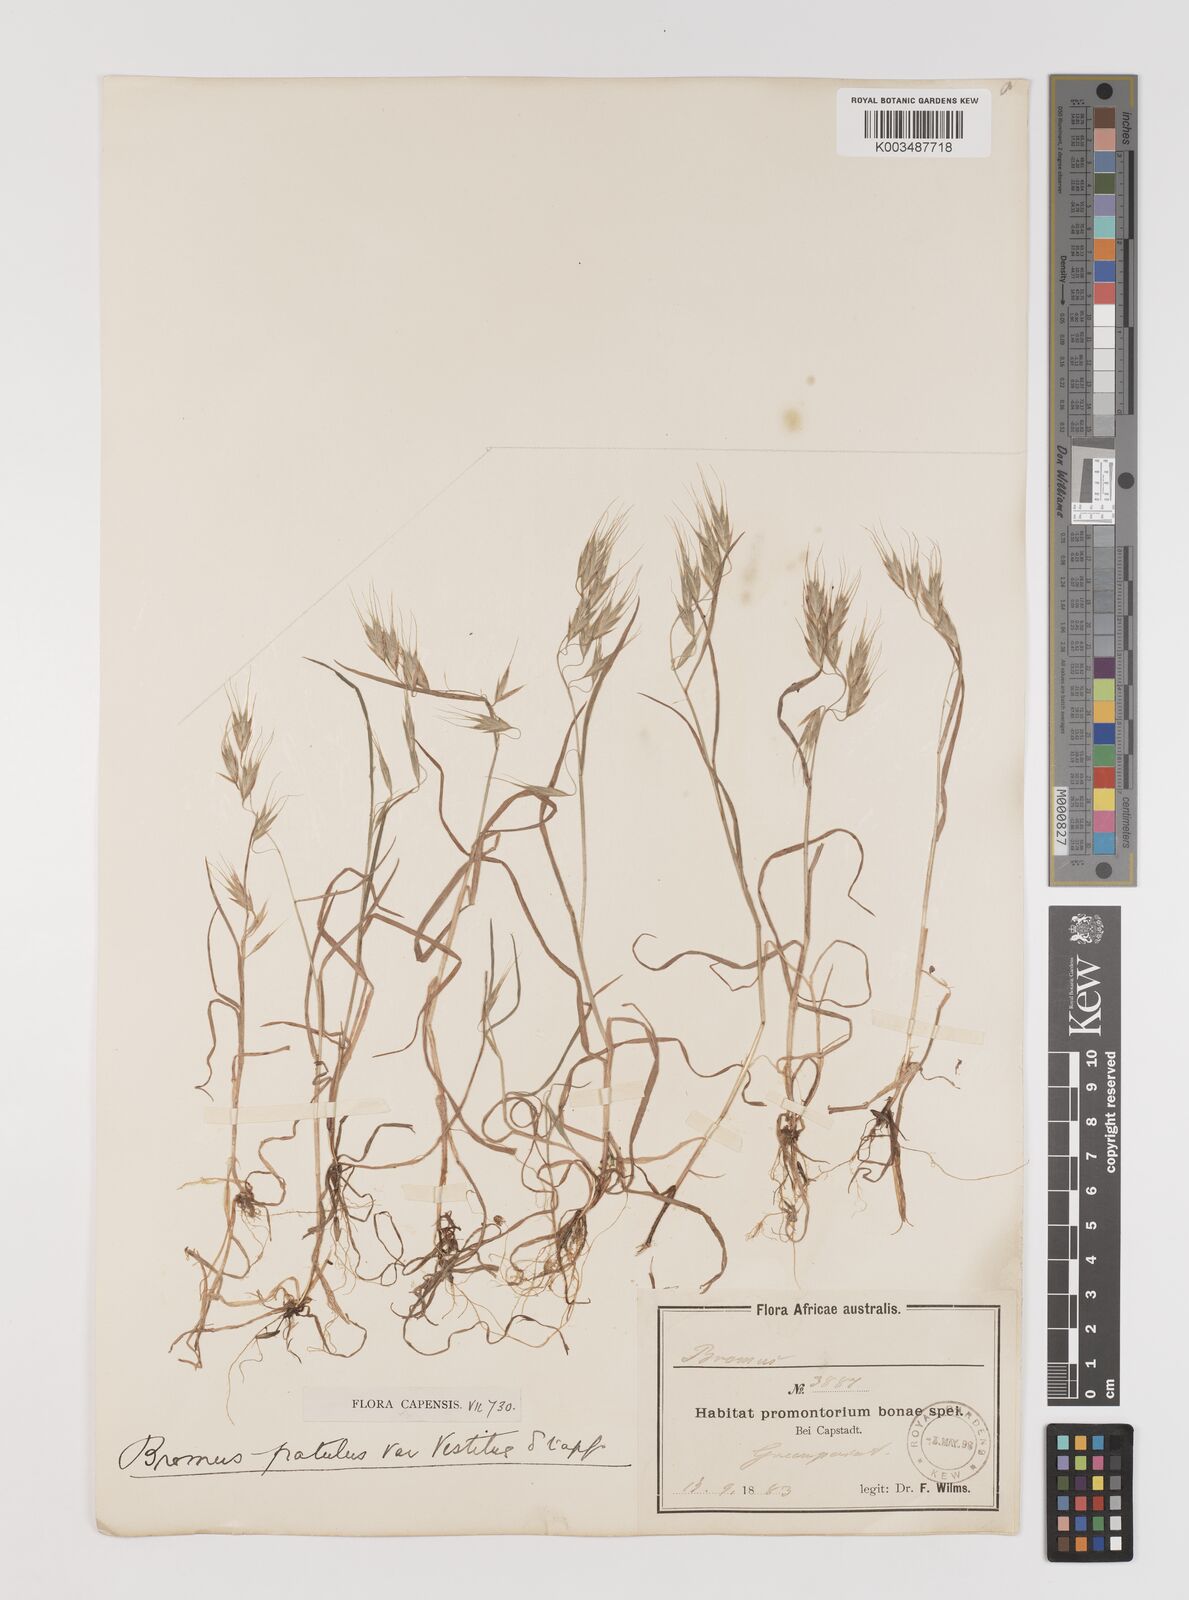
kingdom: Plantae
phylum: Tracheophyta
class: Liliopsida
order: Poales
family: Poaceae
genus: Bromus
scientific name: Bromus pectinatus
